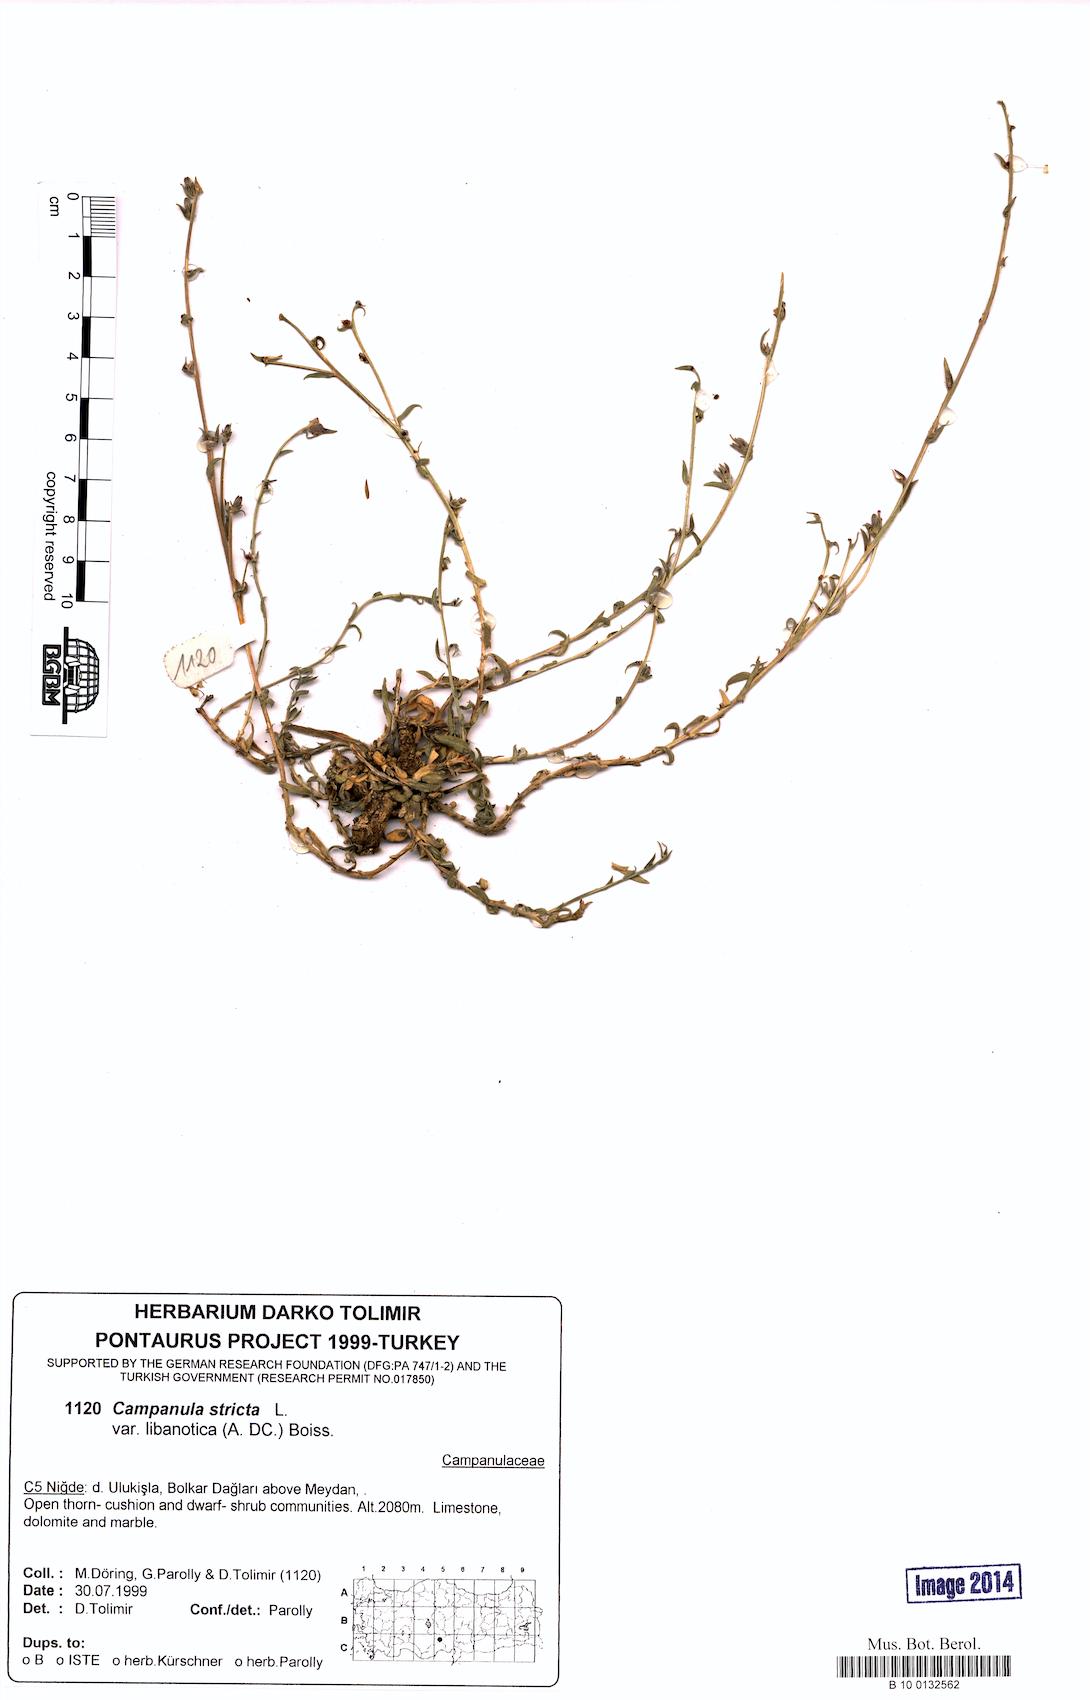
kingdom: Plantae
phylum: Tracheophyta
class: Magnoliopsida
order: Asterales
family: Campanulaceae
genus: Campanula
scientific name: Campanula stricta
